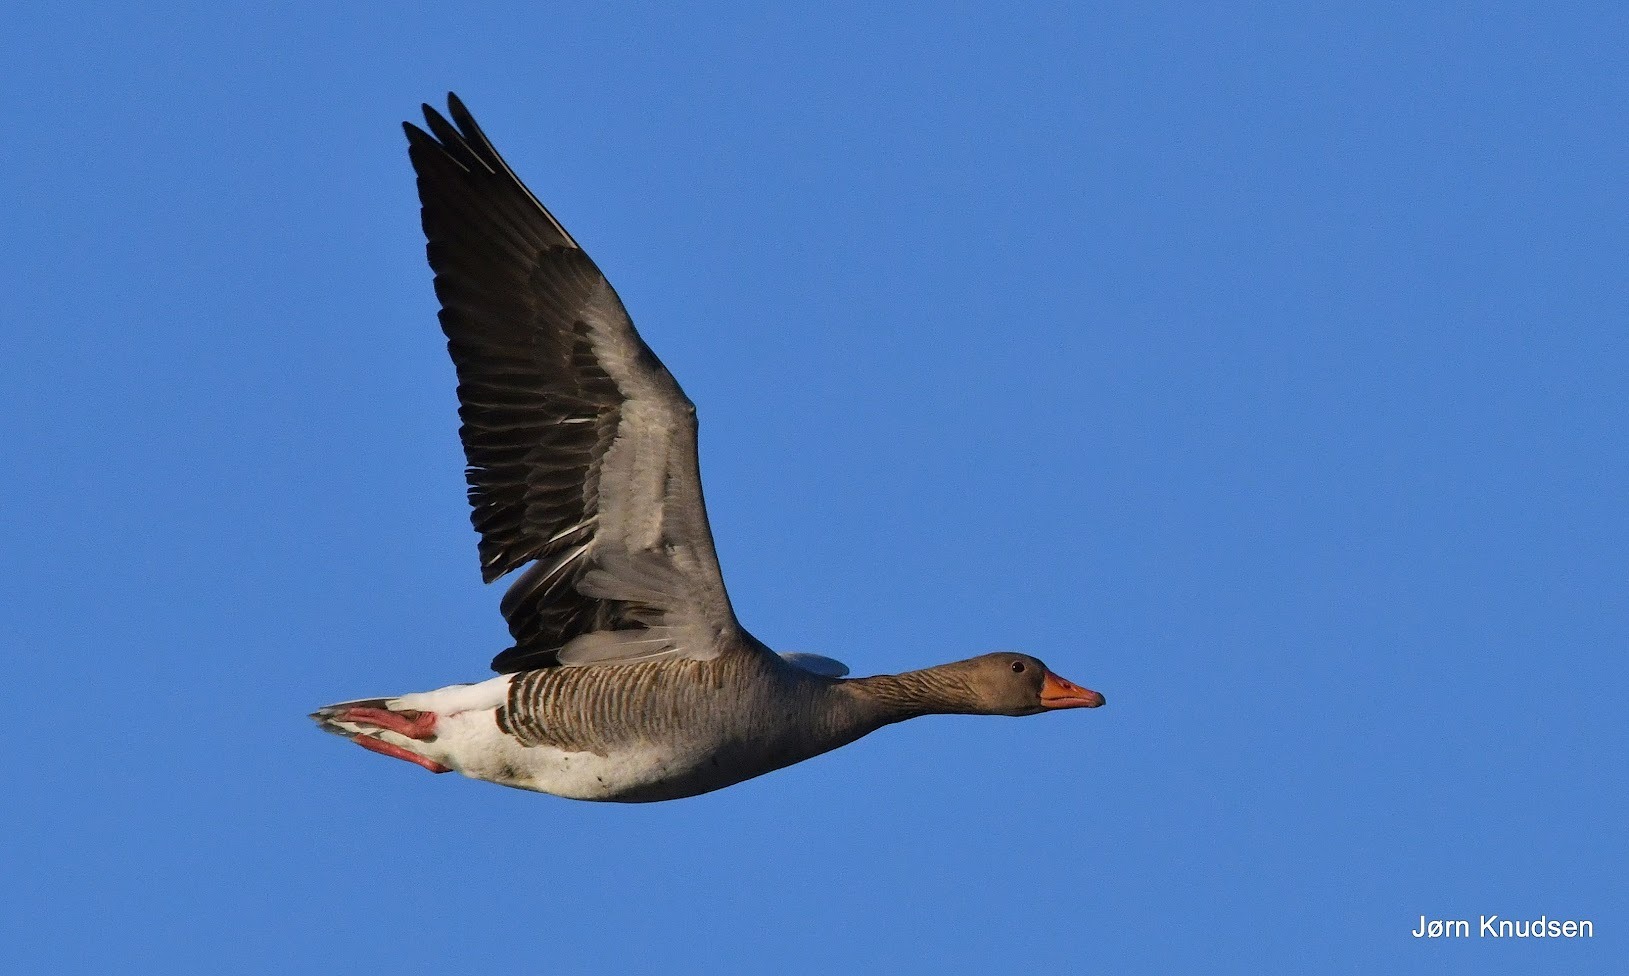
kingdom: Animalia
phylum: Chordata
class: Aves
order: Anseriformes
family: Anatidae
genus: Anser
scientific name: Anser anser
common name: Grågås
